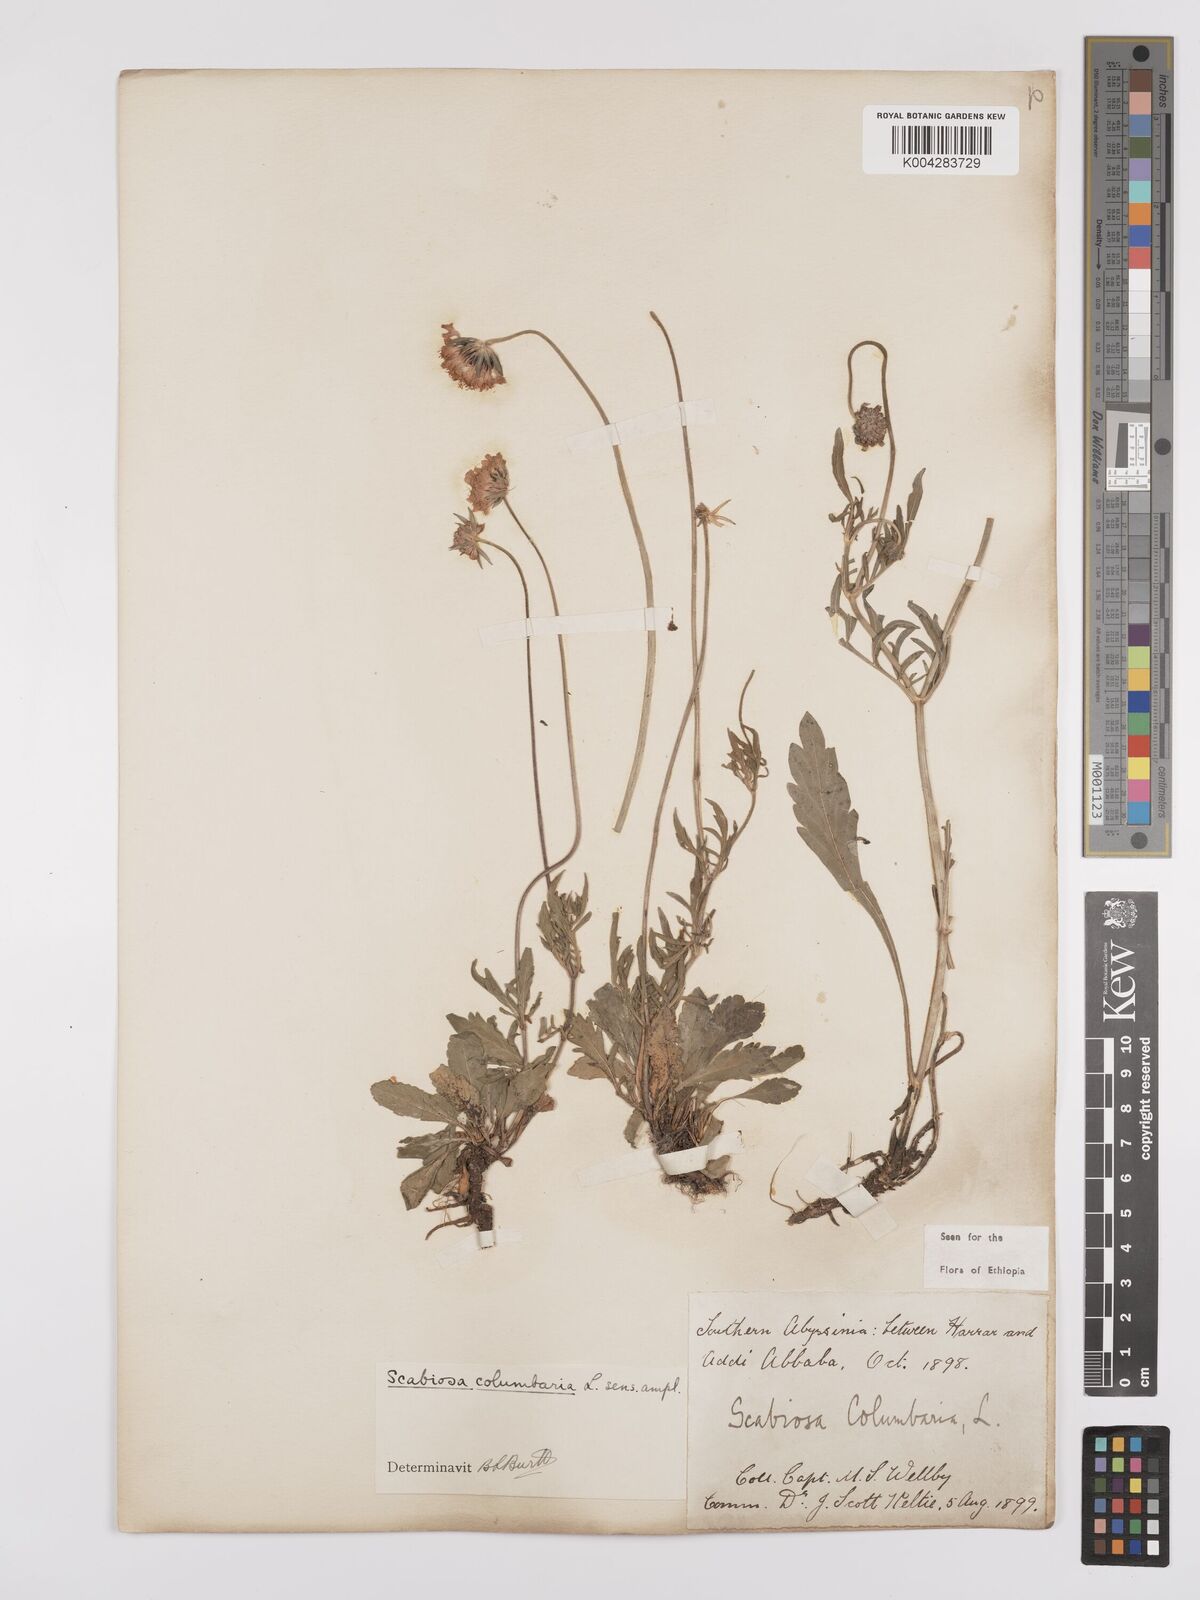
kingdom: Plantae
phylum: Tracheophyta
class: Magnoliopsida
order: Dipsacales
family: Caprifoliaceae
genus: Scabiosa
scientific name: Scabiosa columbaria
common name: Small scabious
